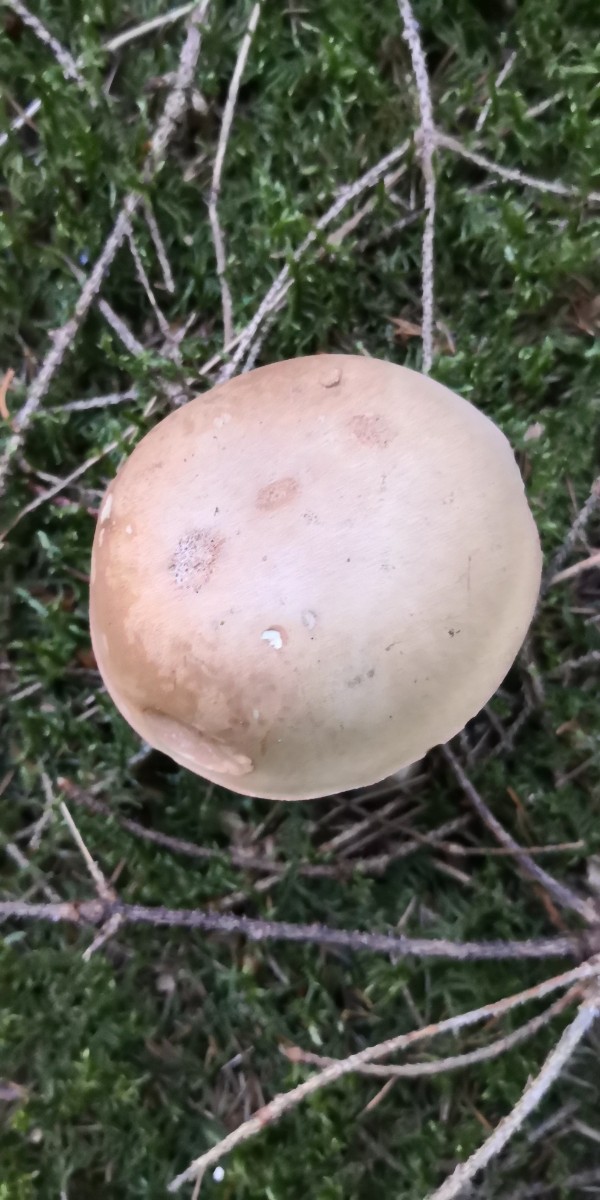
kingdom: Fungi
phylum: Basidiomycota
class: Agaricomycetes
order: Boletales
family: Boletaceae
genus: Tylopilus
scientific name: Tylopilus felleus
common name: galderørhat
